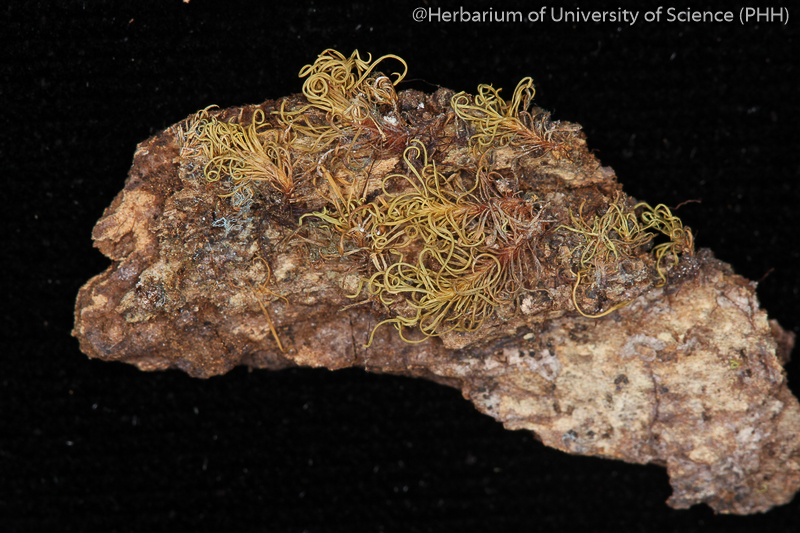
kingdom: Plantae
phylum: Bryophyta
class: Bryopsida
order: Pottiales
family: Pottiaceae
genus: Pachyneuropsis
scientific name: Pachyneuropsis perinvoluta
